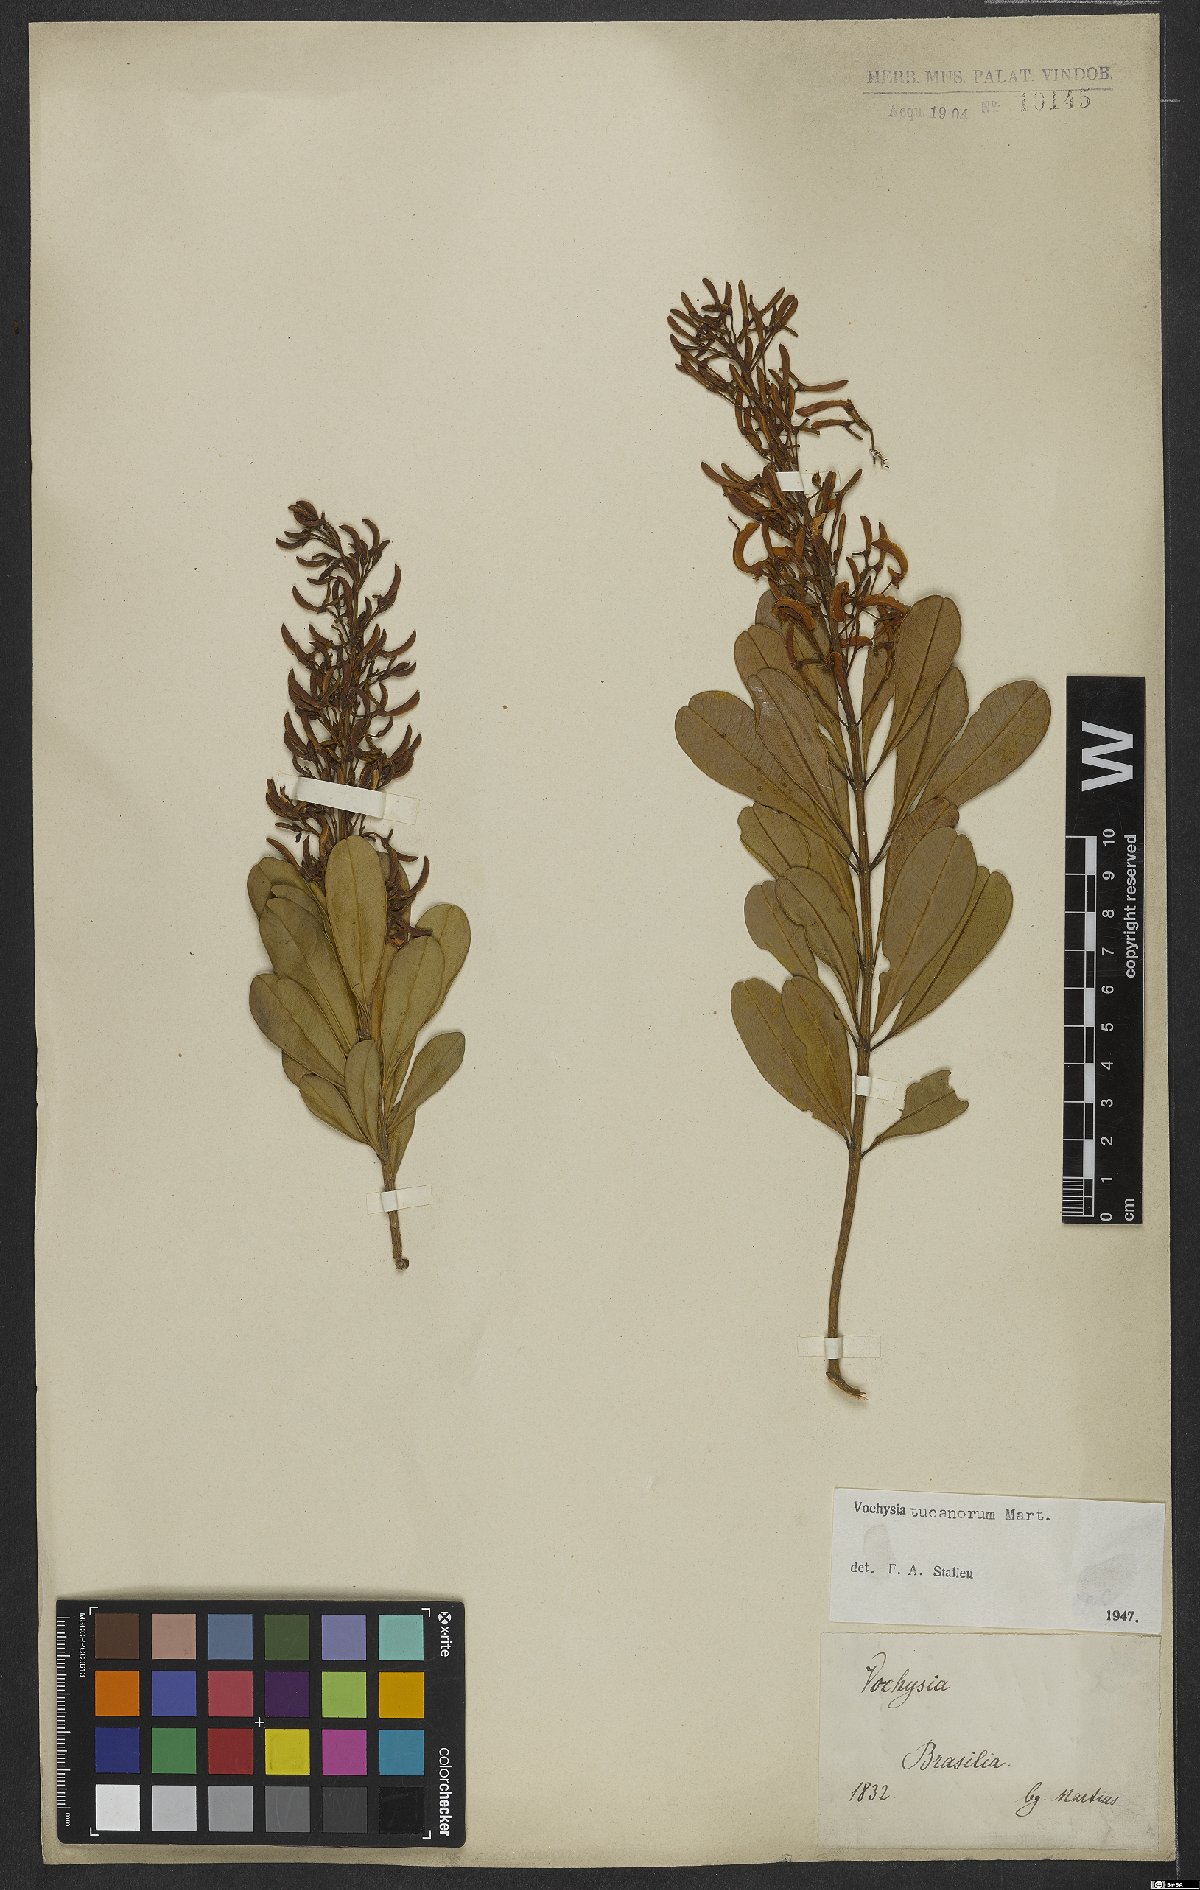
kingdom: Plantae
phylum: Tracheophyta
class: Magnoliopsida
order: Myrtales
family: Vochysiaceae
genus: Vochysia
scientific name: Vochysia tucanorum
